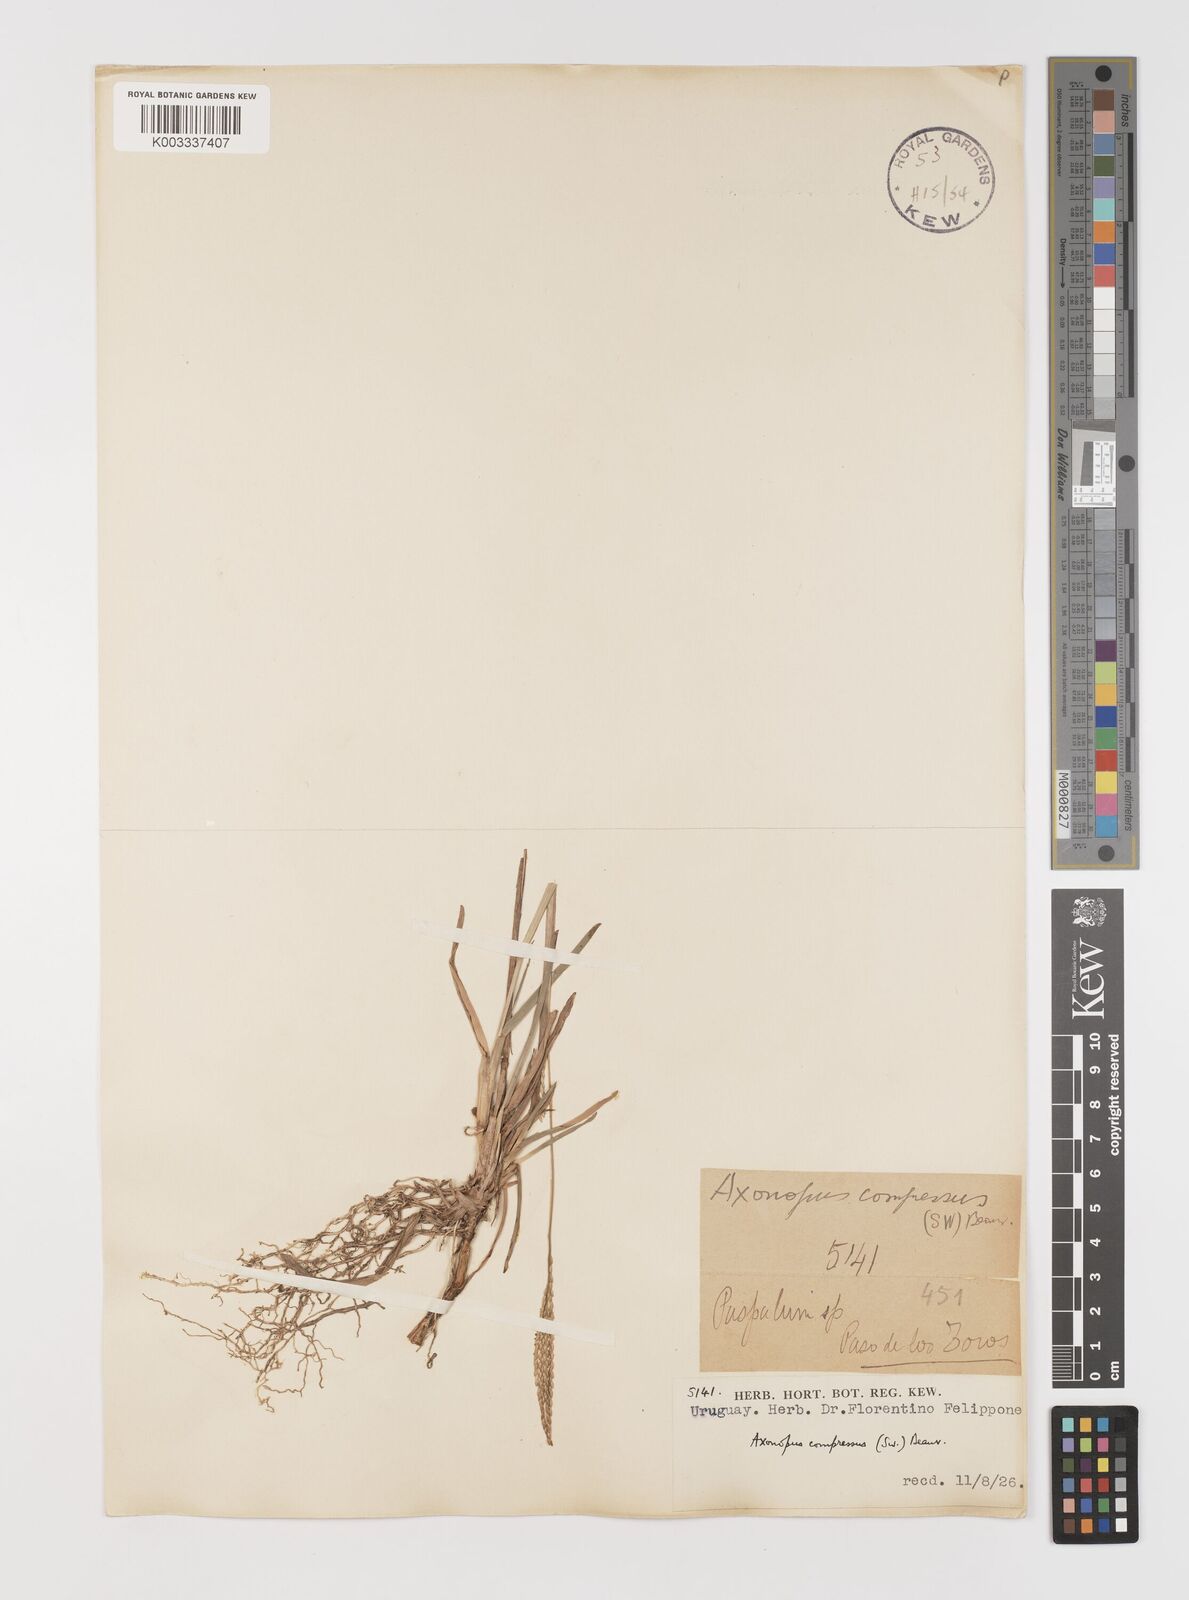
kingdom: Plantae
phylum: Tracheophyta
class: Liliopsida
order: Poales
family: Poaceae
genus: Axonopus
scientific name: Axonopus compressus
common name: American carpet grass
